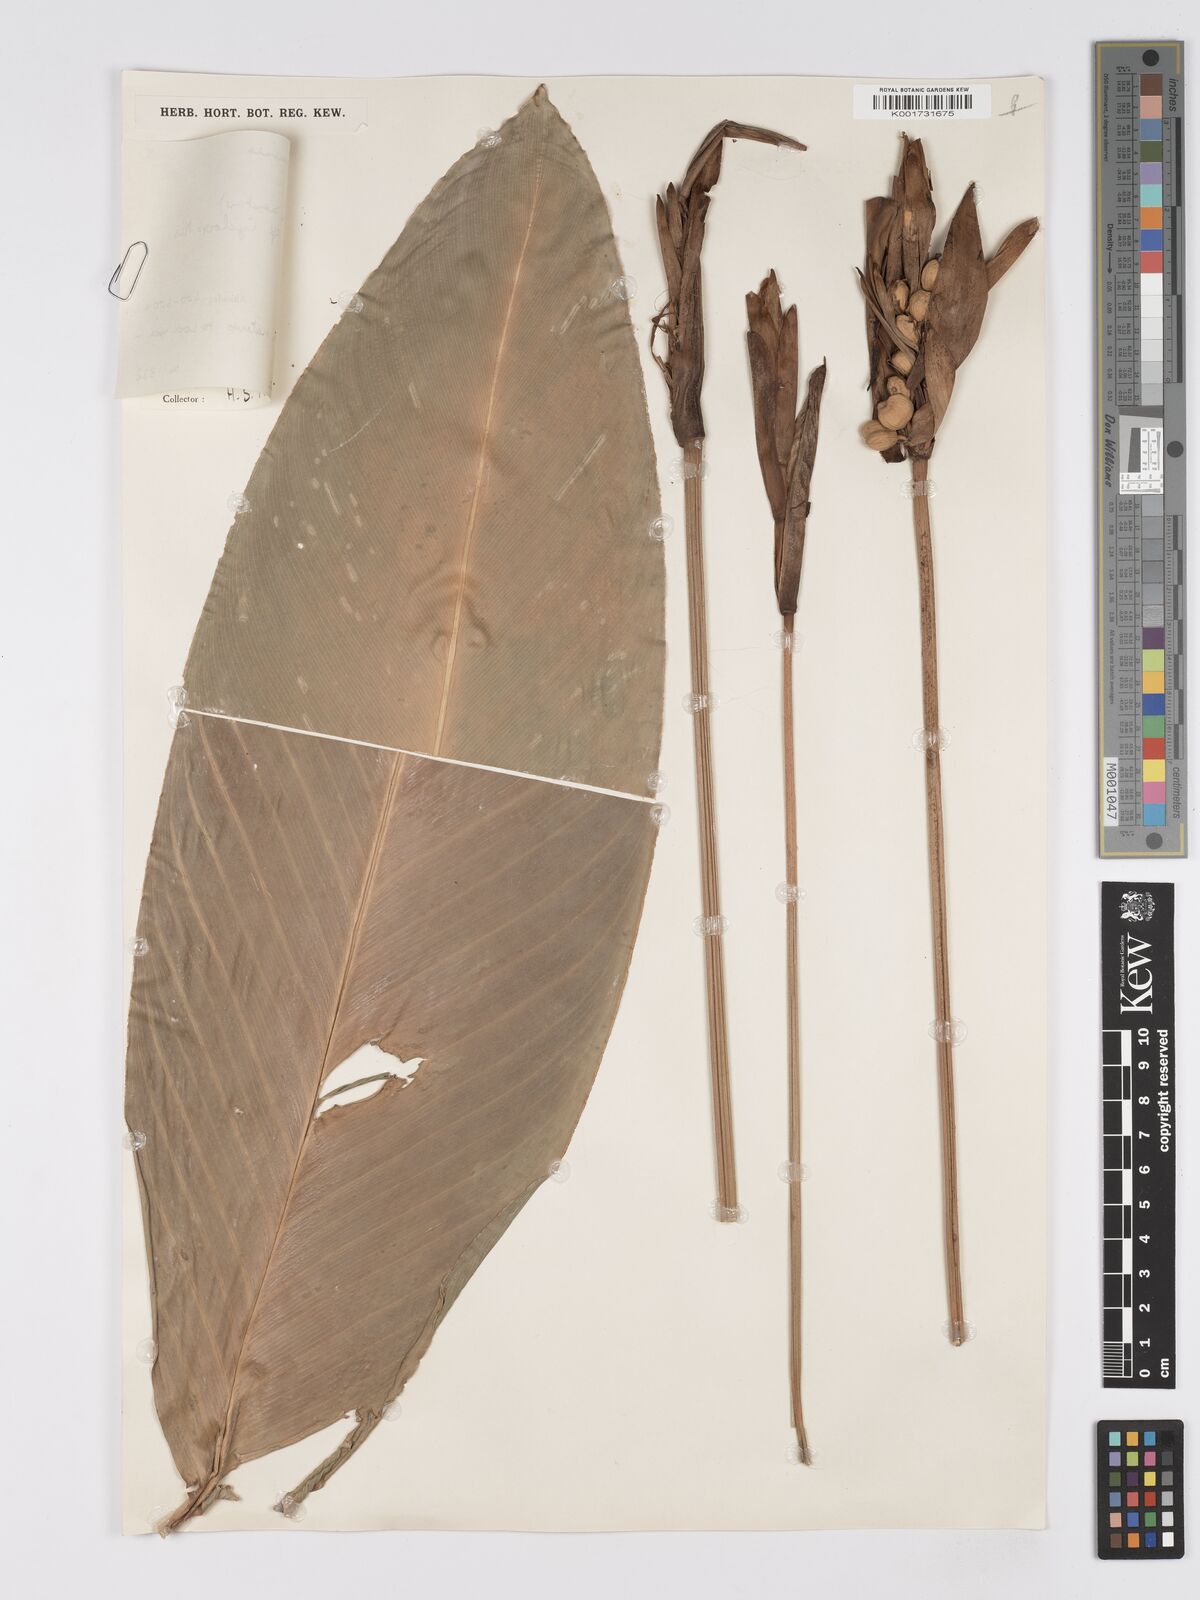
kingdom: Plantae
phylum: Tracheophyta
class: Liliopsida
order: Zingiberales
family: Marantaceae
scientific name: Marantaceae
